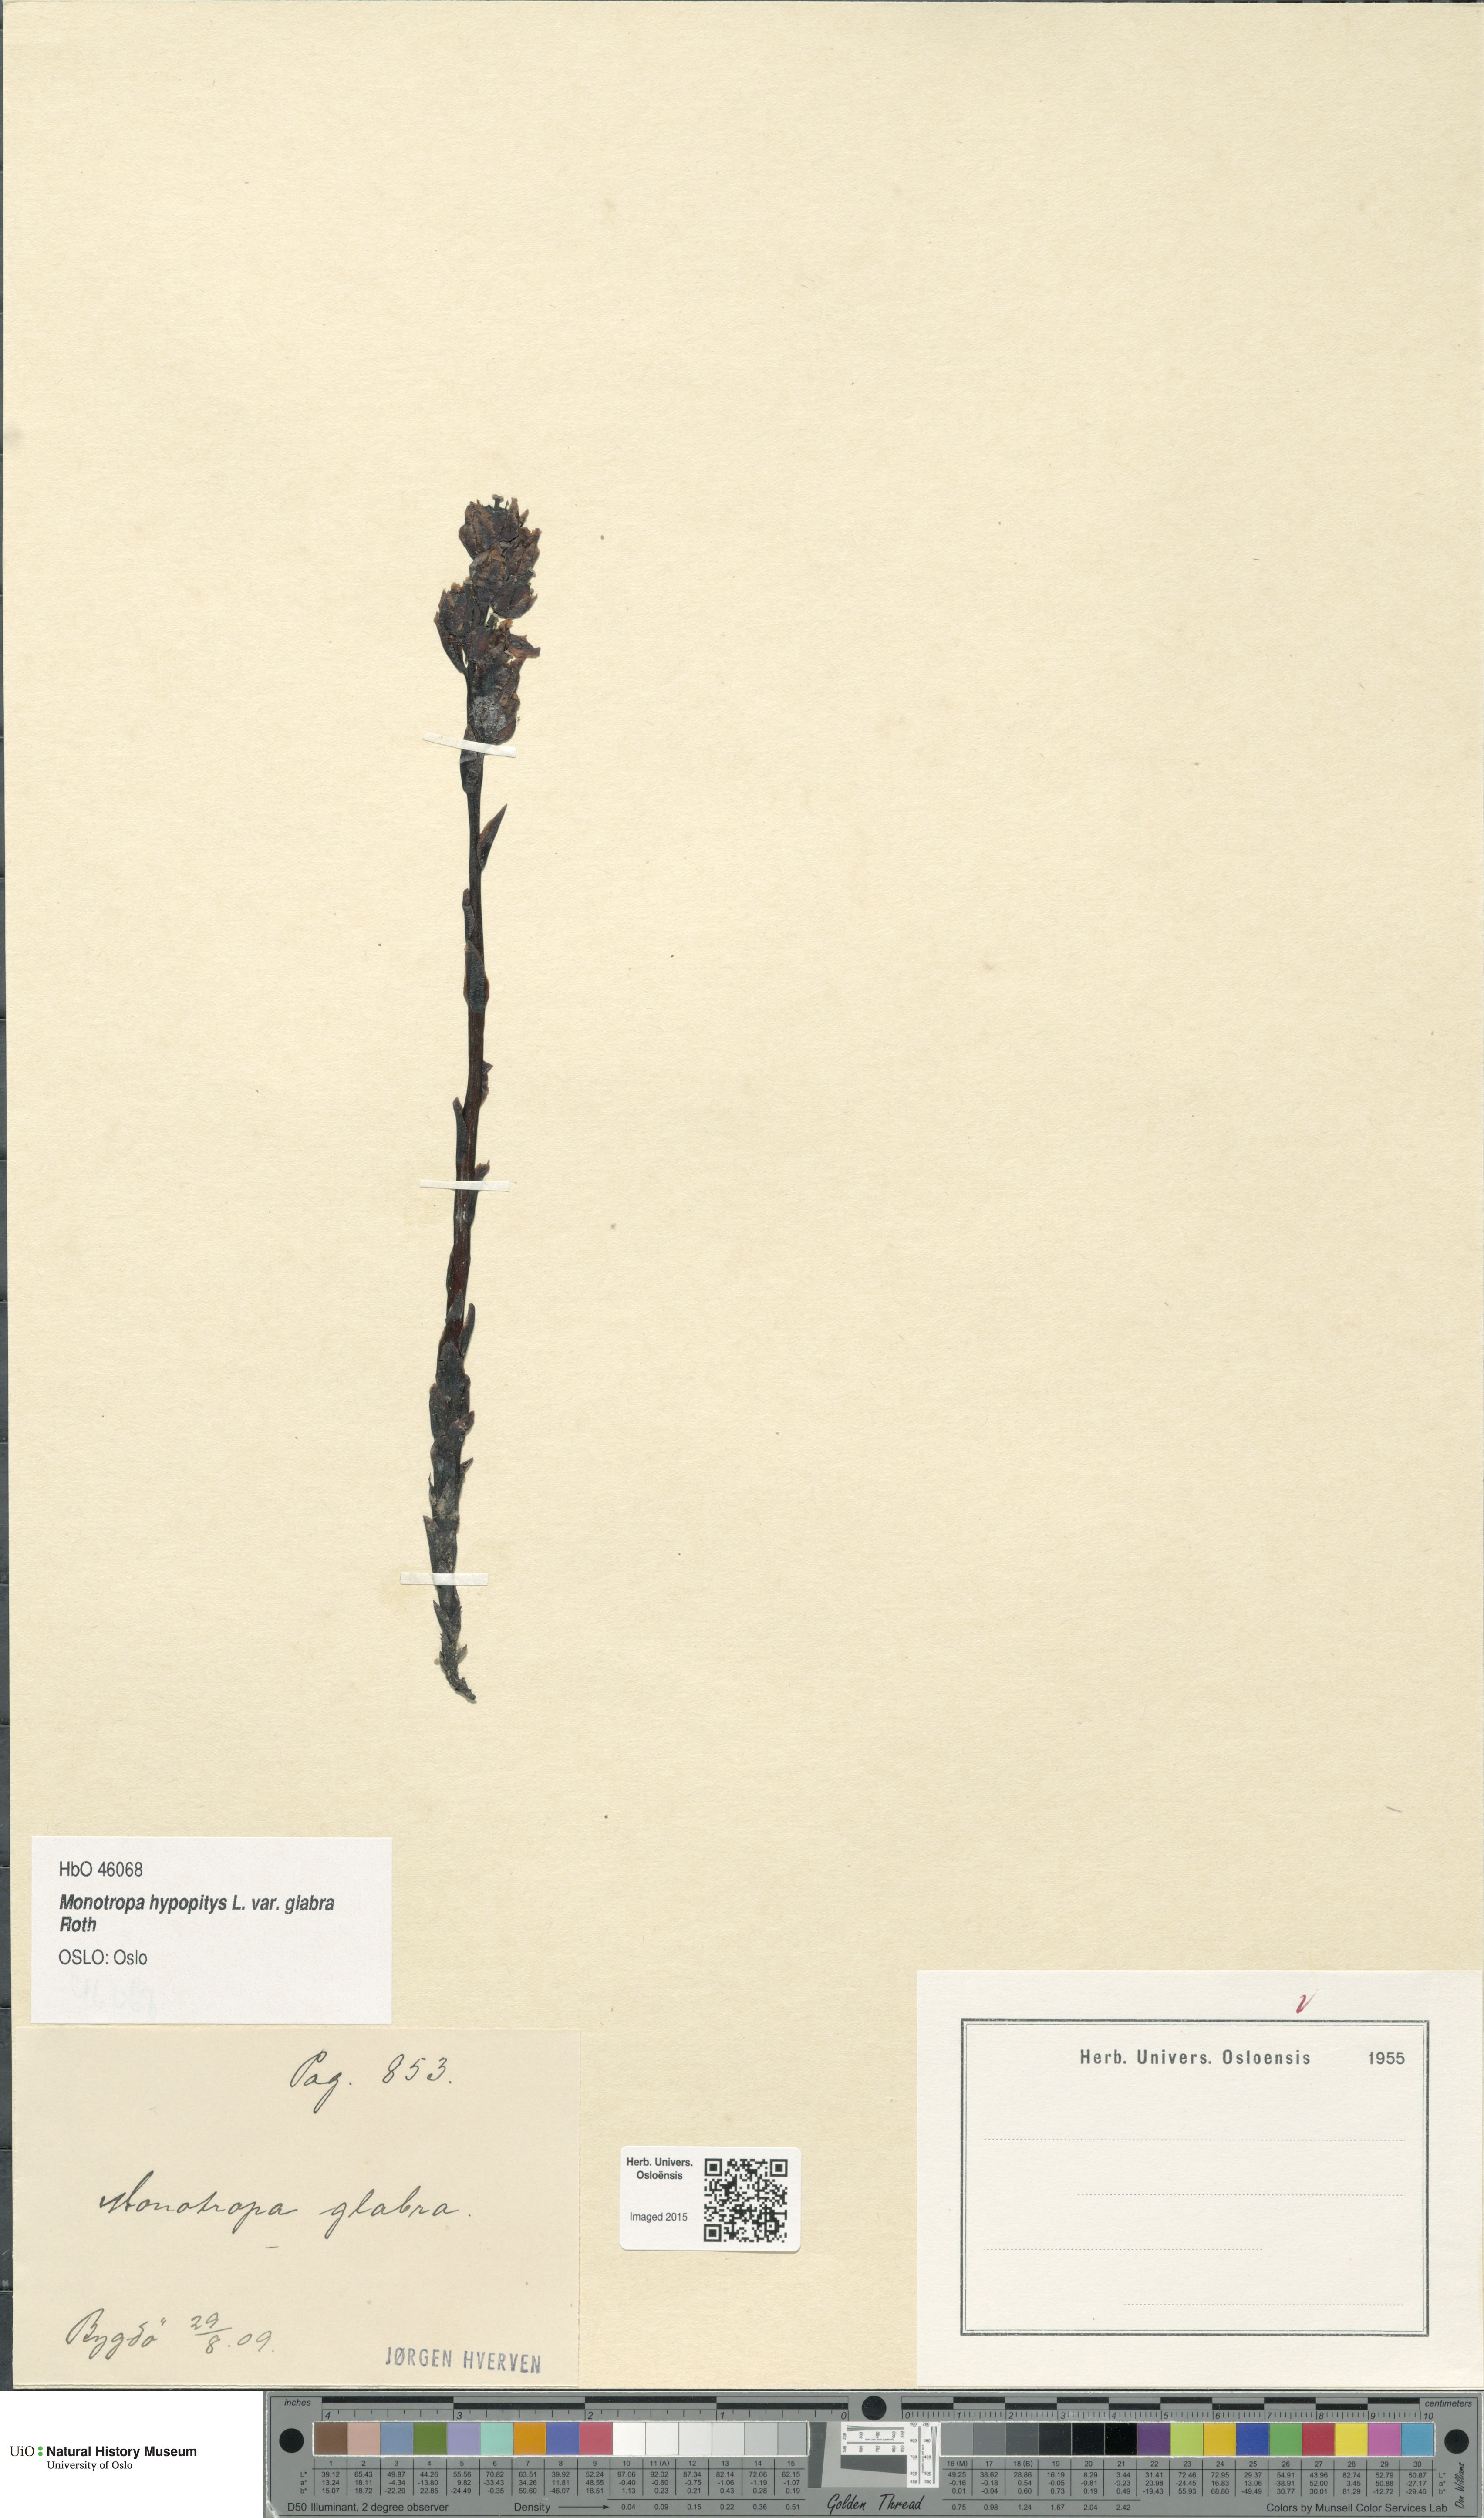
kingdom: Plantae
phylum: Tracheophyta
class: Magnoliopsida
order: Ericales
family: Ericaceae
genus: Hypopitys
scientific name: Hypopitys hypophegea
